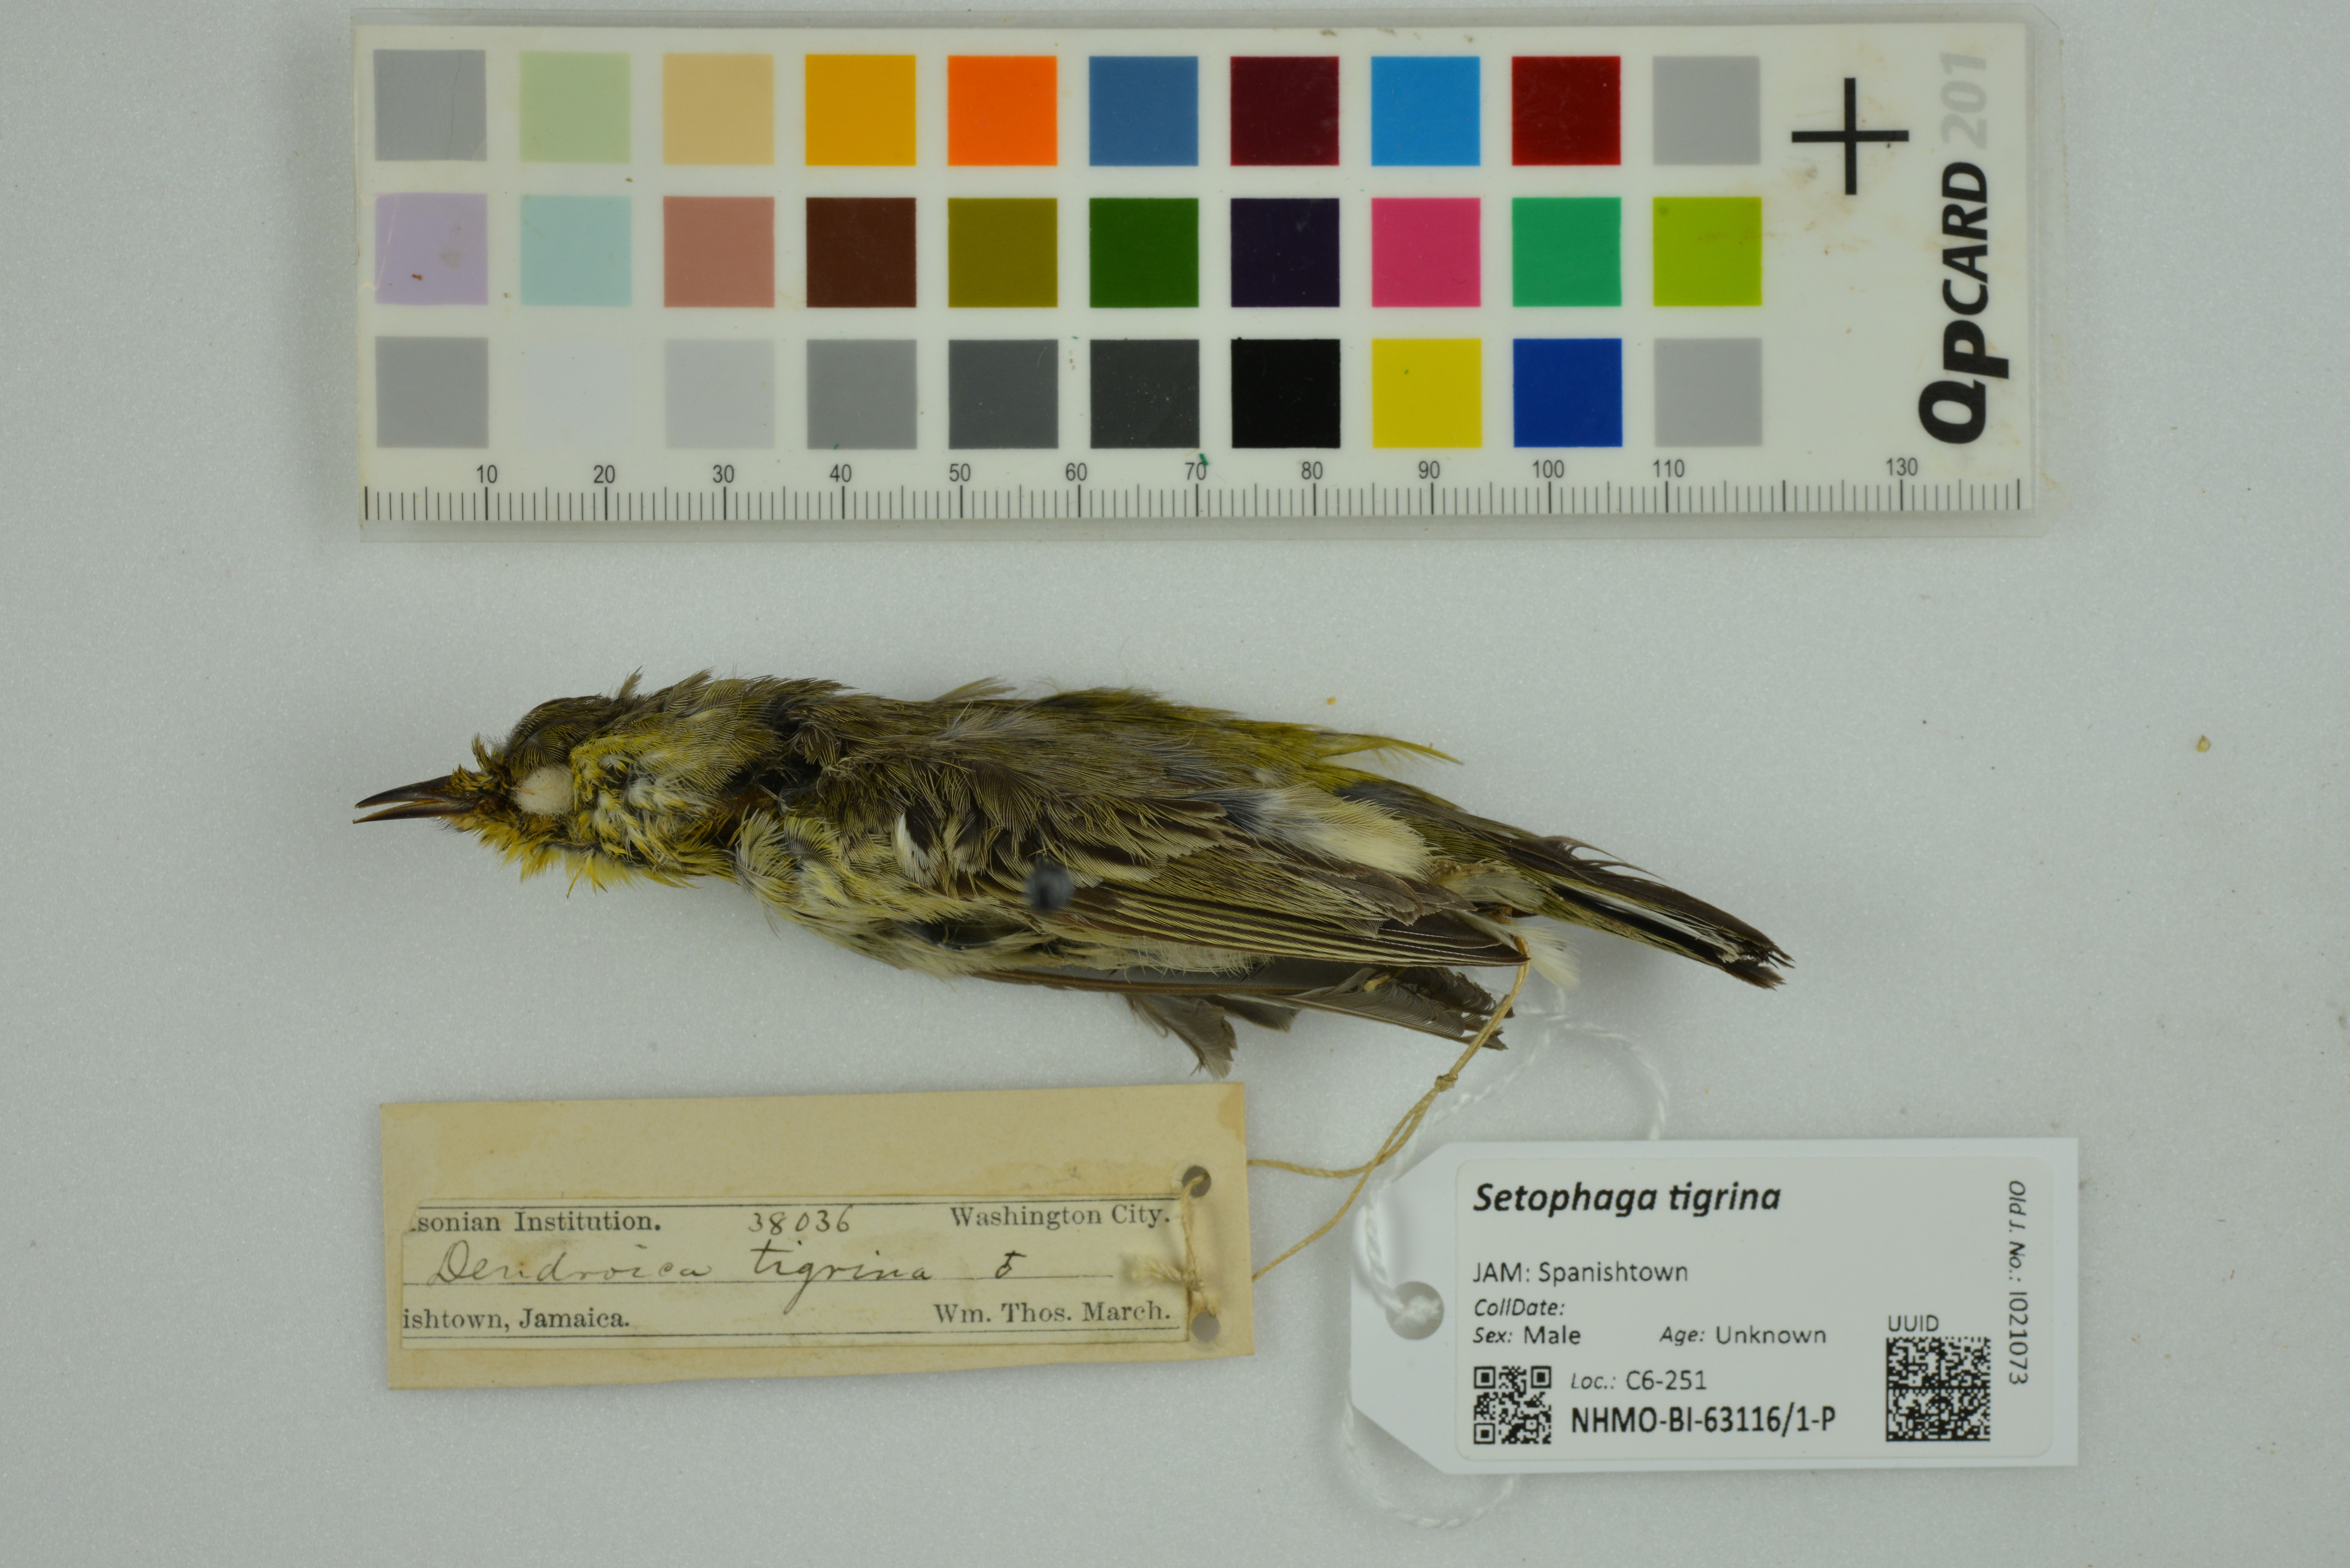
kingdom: Animalia
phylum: Chordata
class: Aves
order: Passeriformes
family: Parulidae
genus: Setophaga
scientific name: Setophaga tigrina
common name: Cape may warbler
